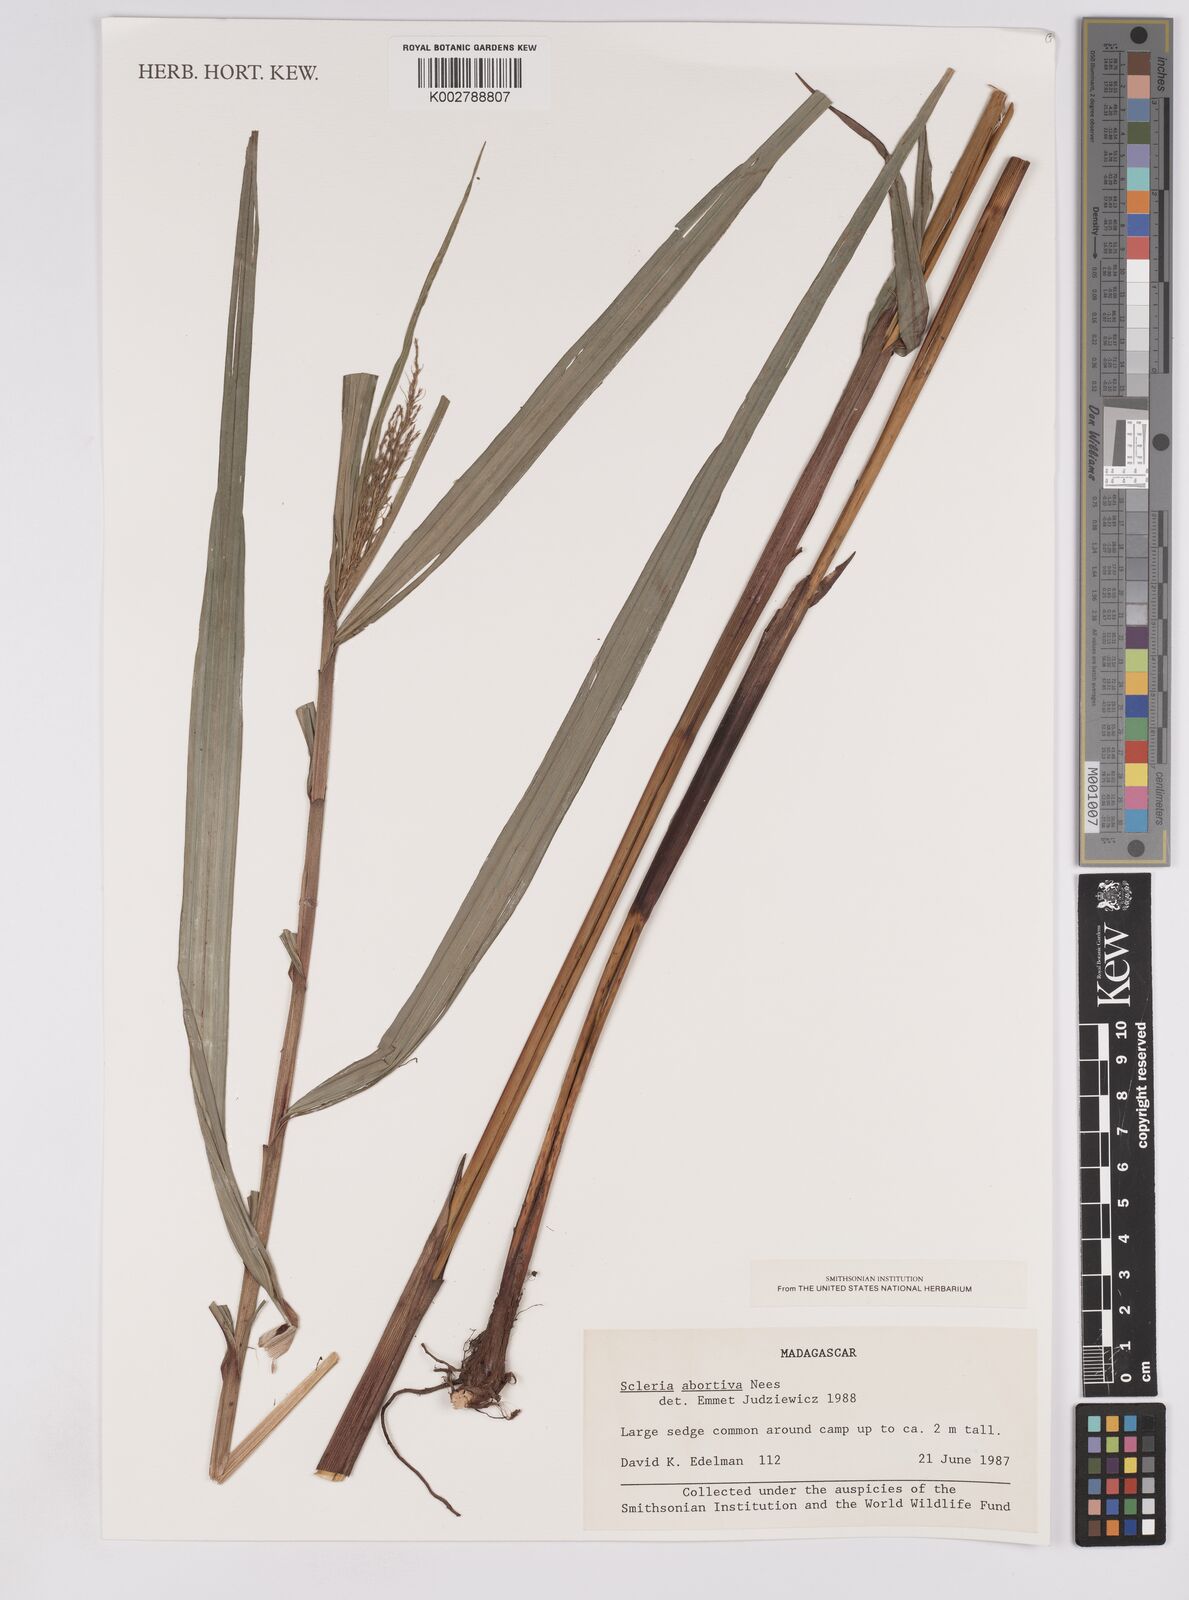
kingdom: Plantae
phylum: Tracheophyta
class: Liliopsida
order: Poales
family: Cyperaceae
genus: Scleria
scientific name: Scleria
